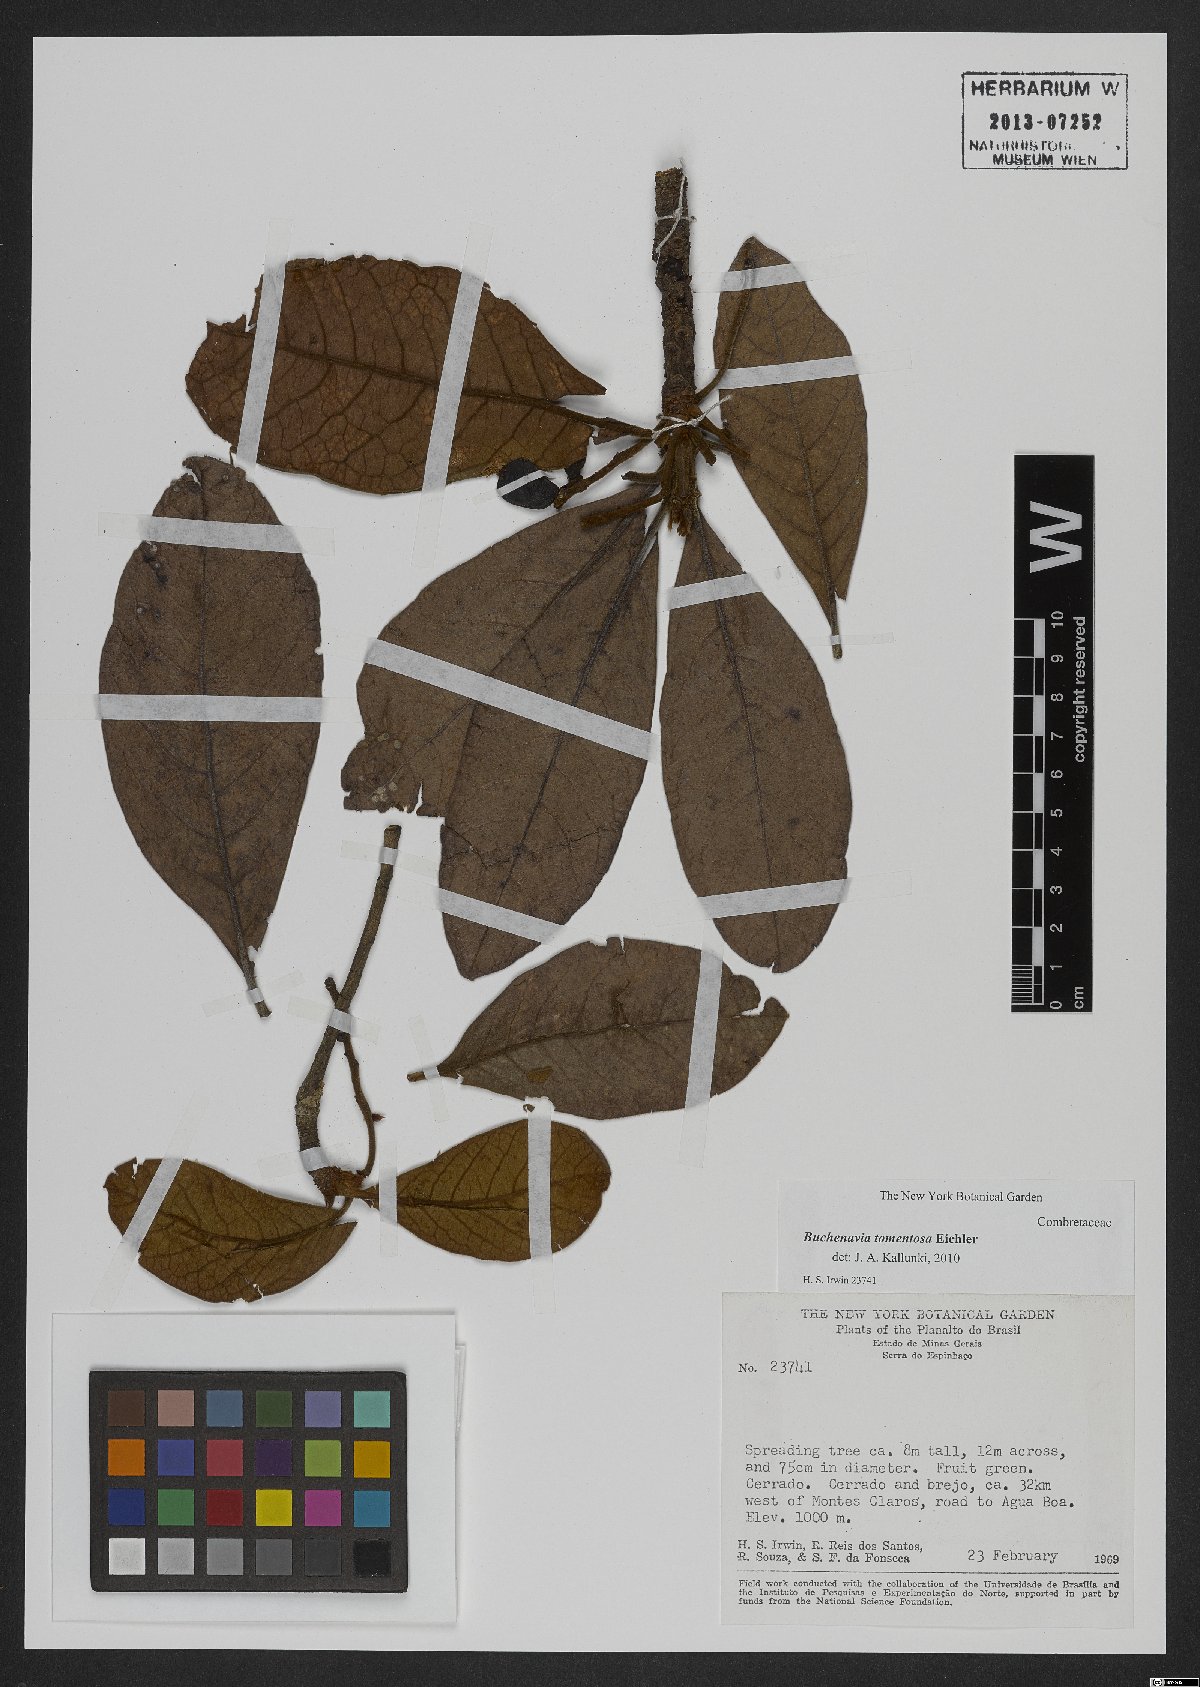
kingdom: Plantae
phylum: Tracheophyta
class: Magnoliopsida
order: Myrtales
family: Combretaceae
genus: Terminalia
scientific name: Terminalia corrugata
